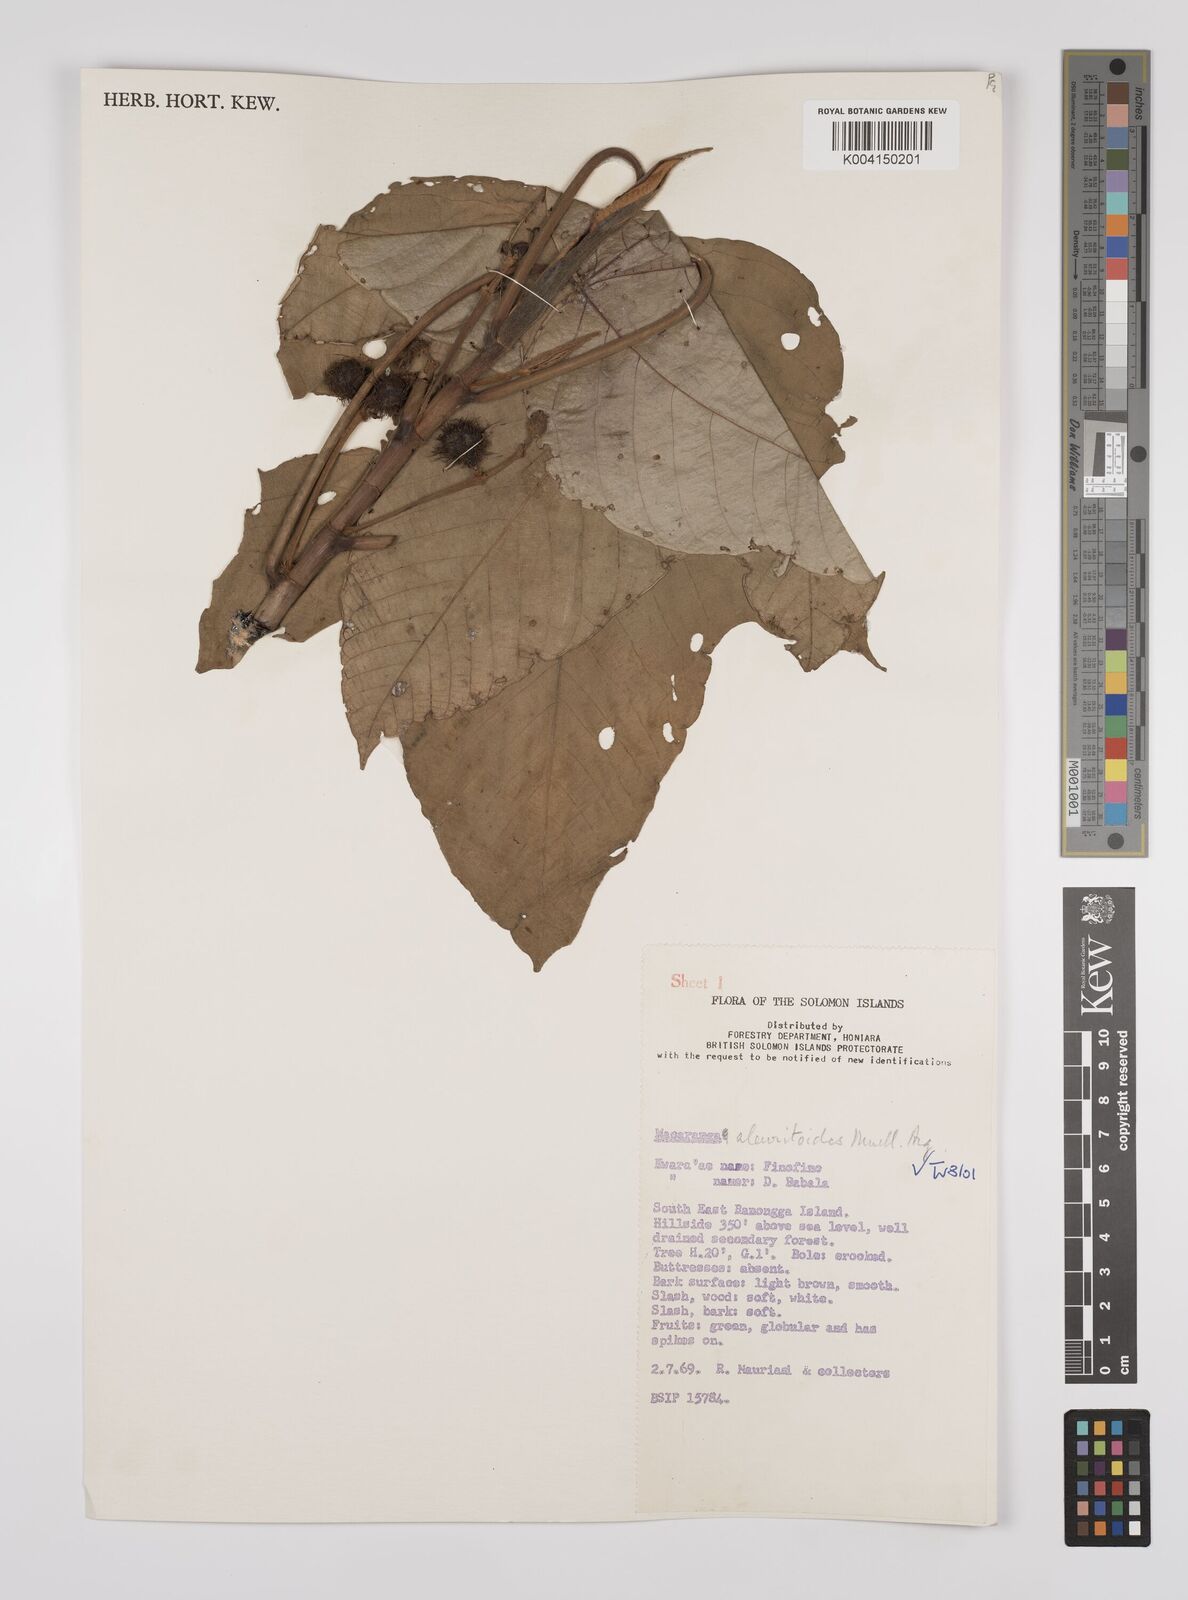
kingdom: Plantae
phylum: Tracheophyta
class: Magnoliopsida
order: Malpighiales
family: Euphorbiaceae
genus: Macaranga
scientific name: Macaranga aleuritoides
